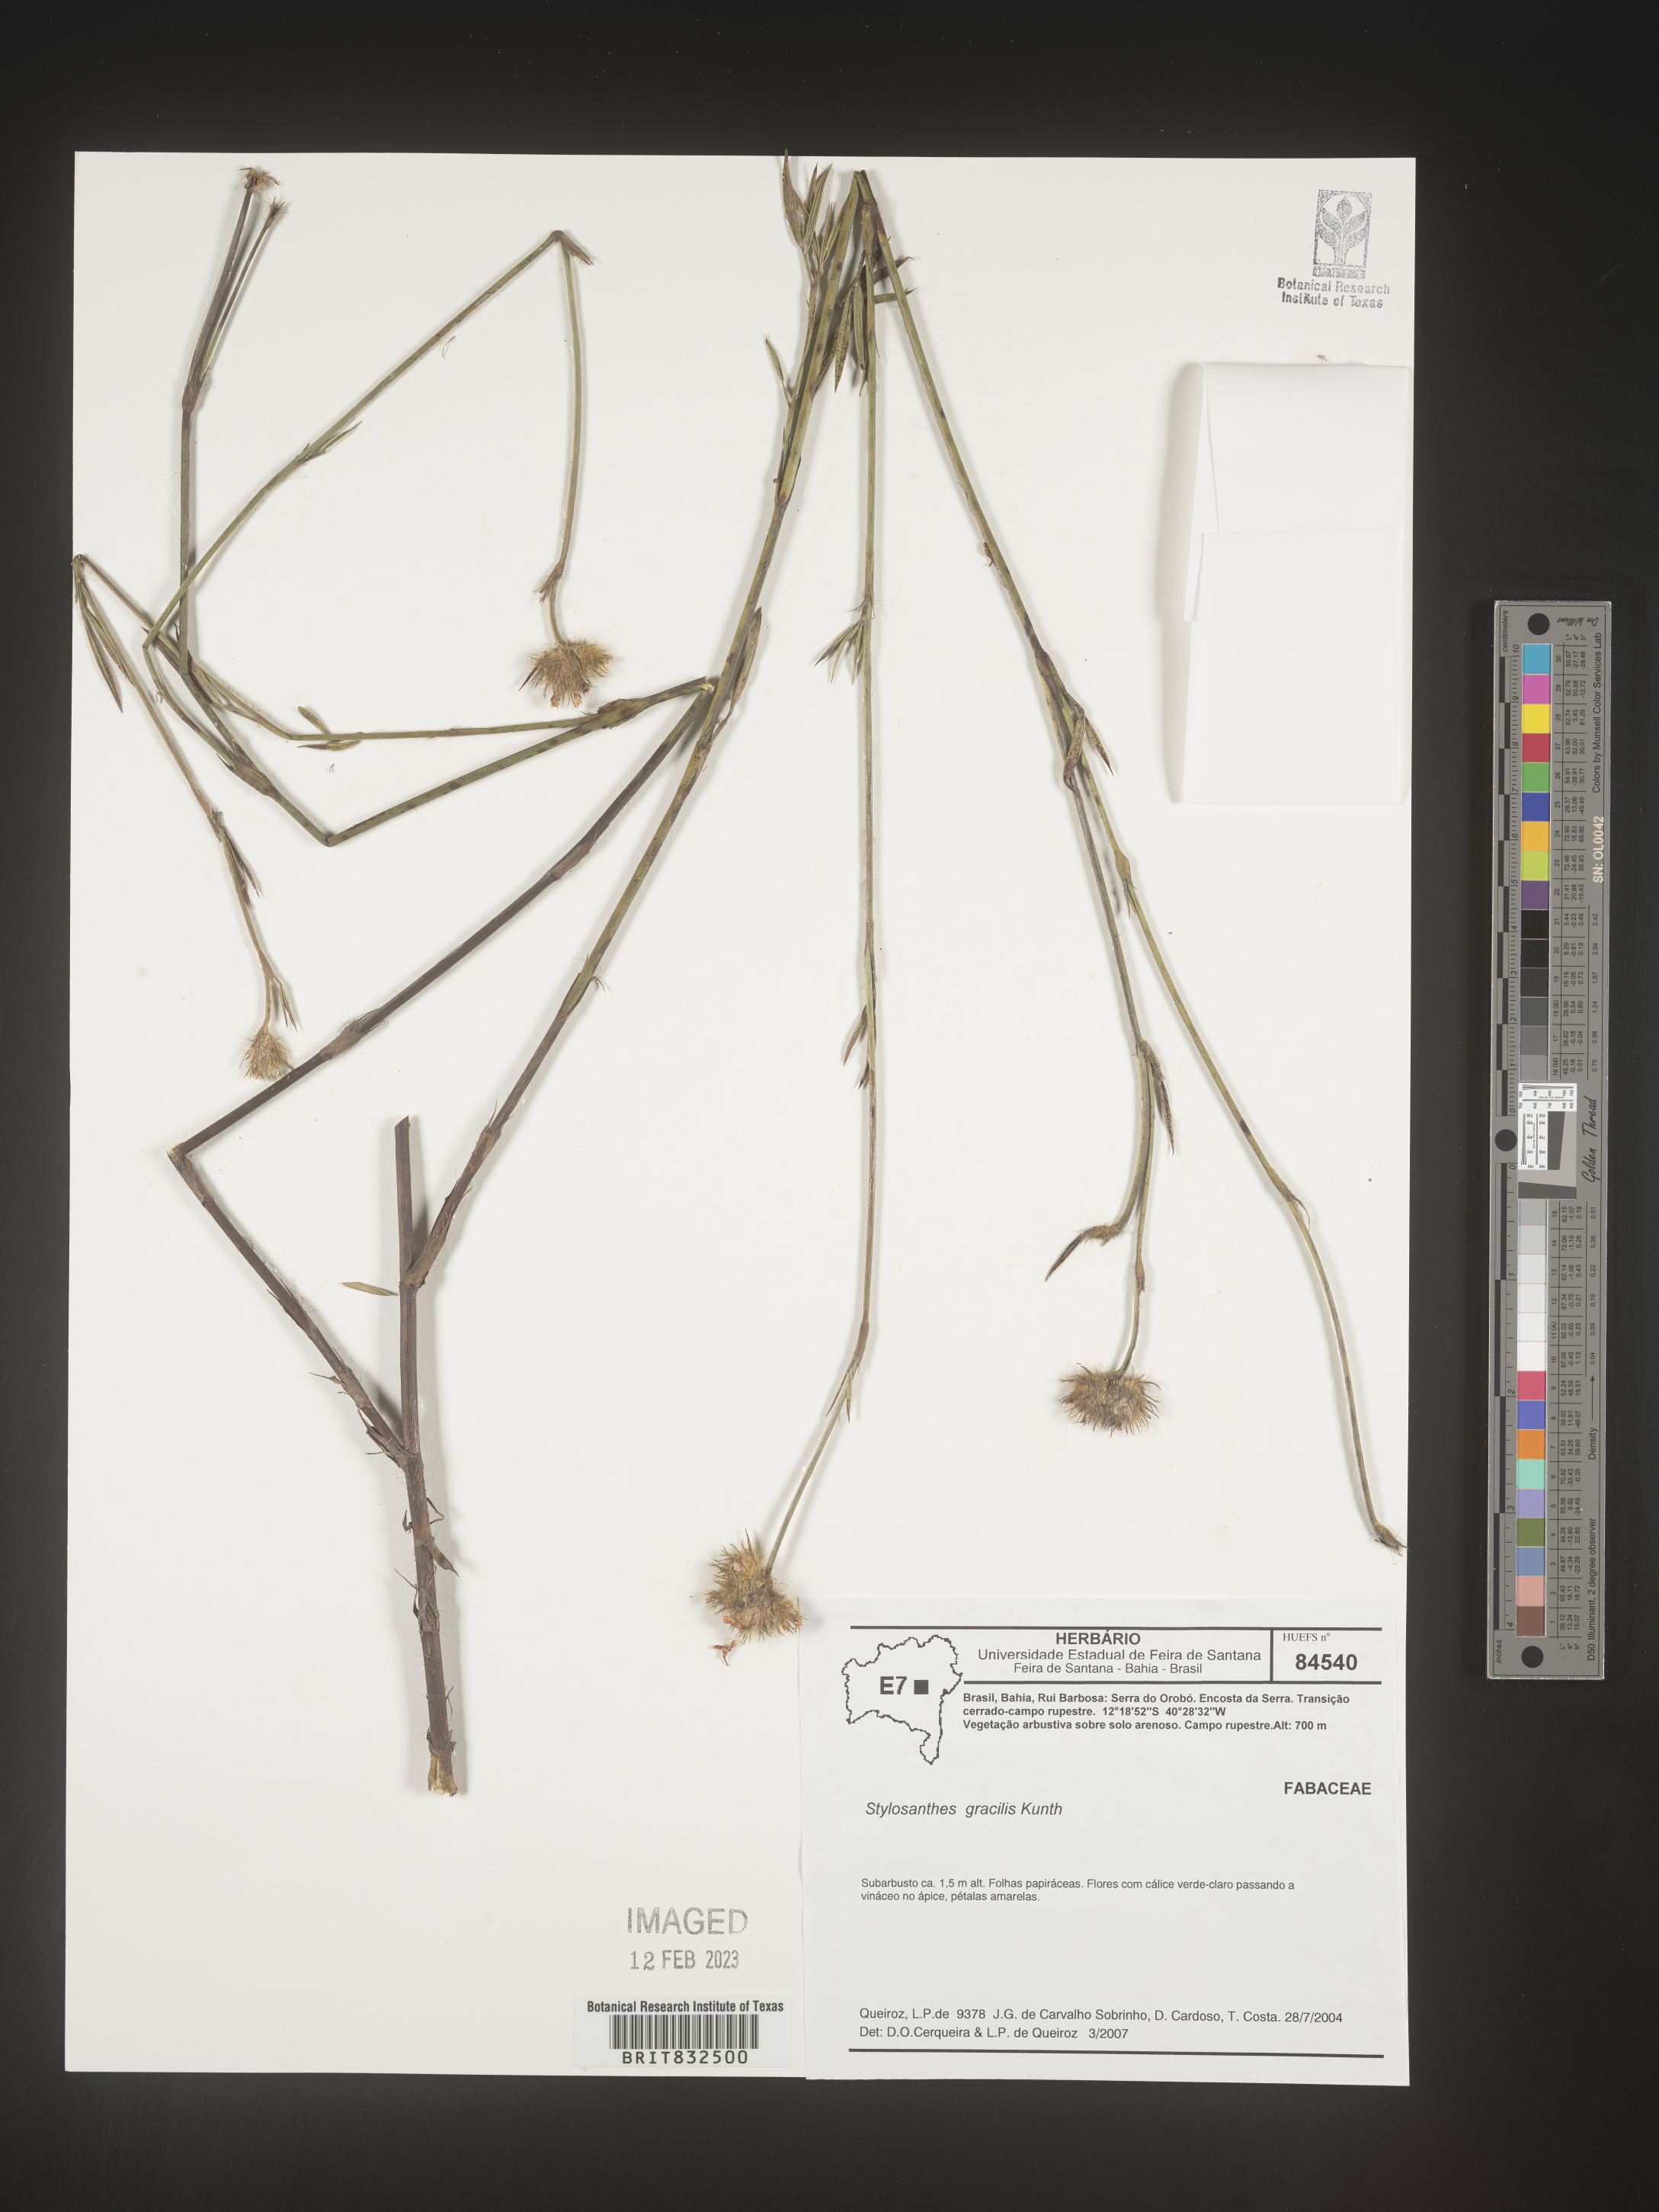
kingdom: Plantae
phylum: Tracheophyta
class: Magnoliopsida
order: Fabales
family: Fabaceae
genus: Stylosanthes
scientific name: Stylosanthes
